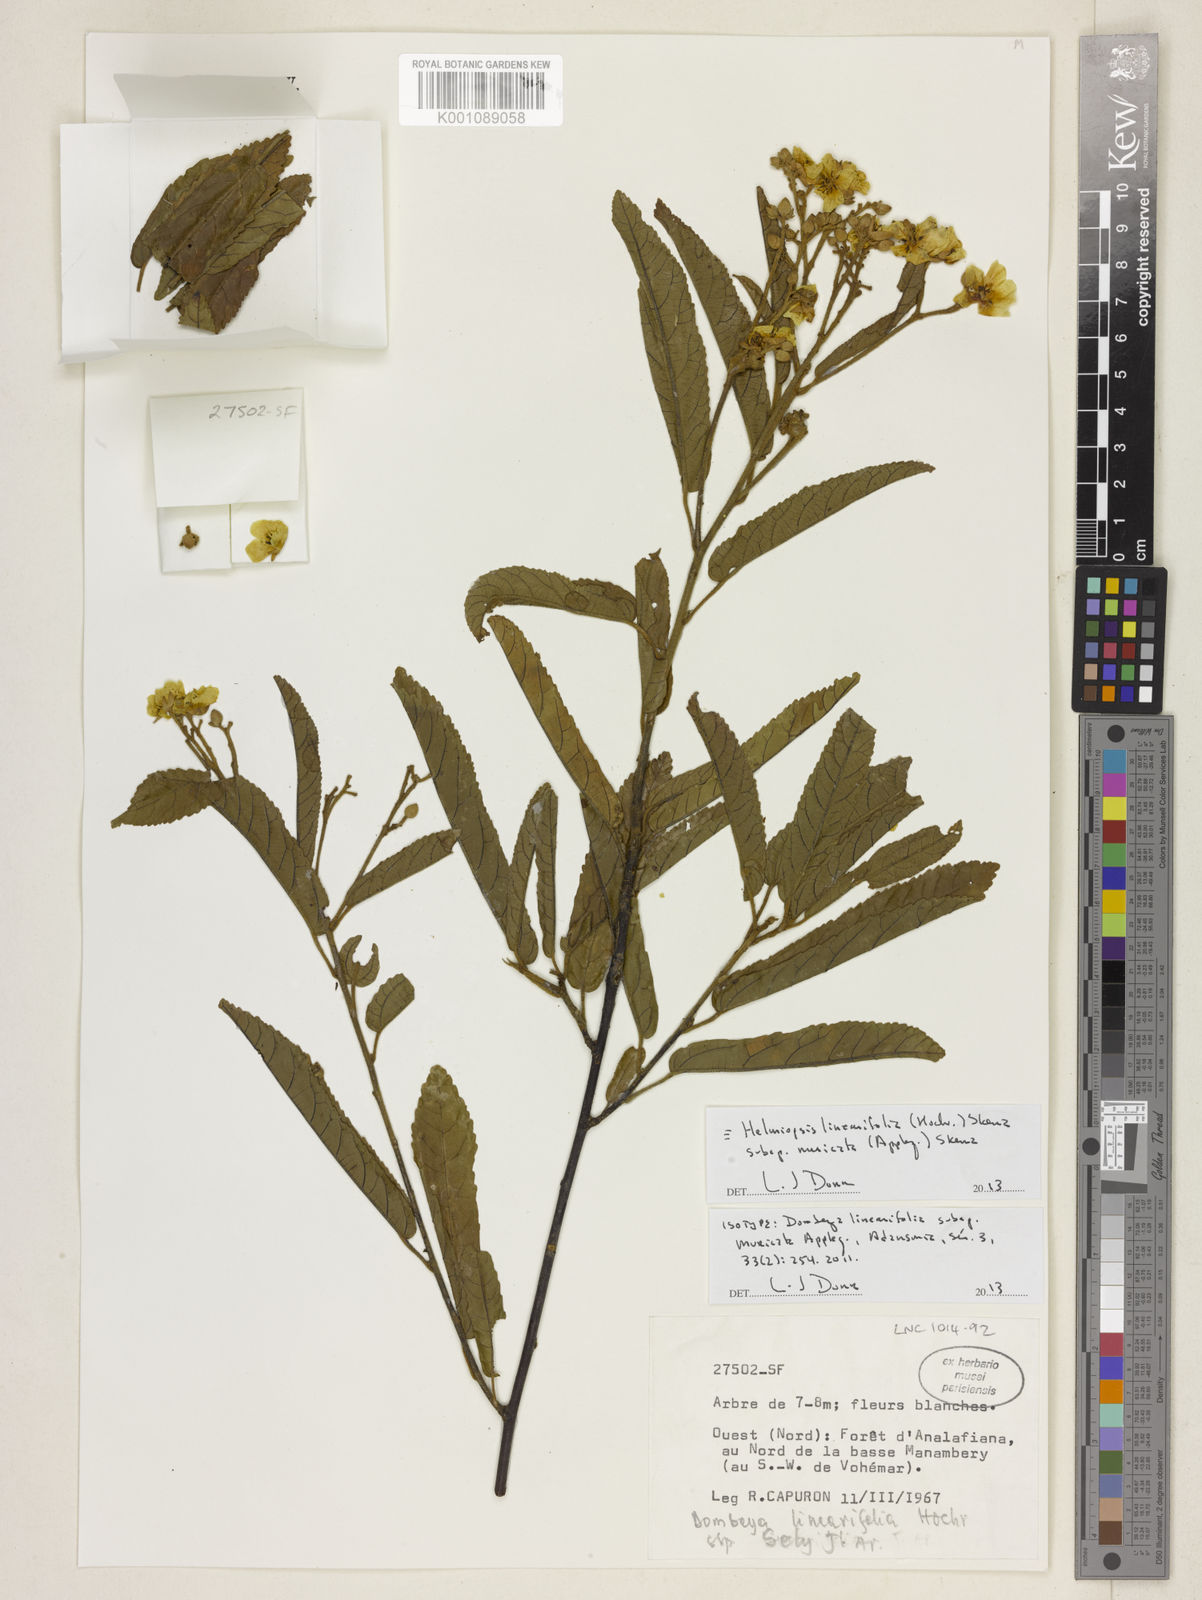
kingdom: Plantae
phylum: Tracheophyta
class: Magnoliopsida
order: Malvales
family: Malvaceae
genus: Eriolaena
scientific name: Eriolaena rigida
